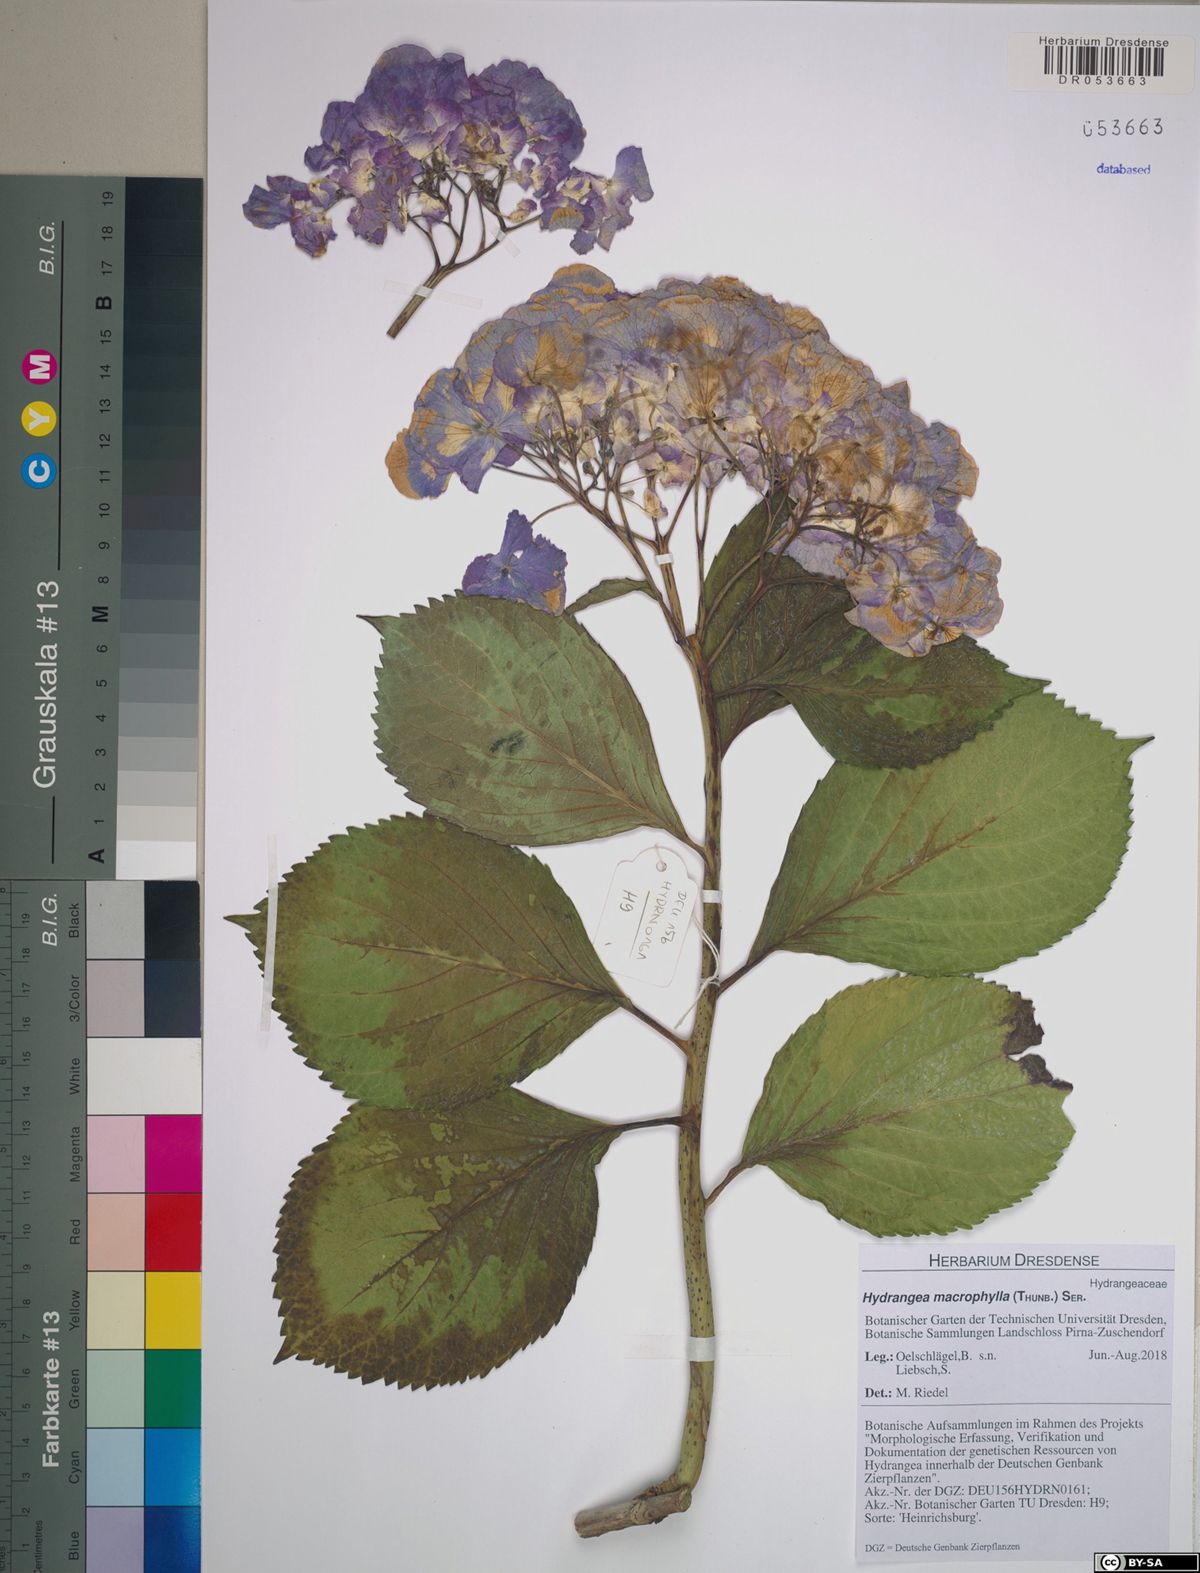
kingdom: Plantae
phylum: Tracheophyta
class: Magnoliopsida
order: Cornales
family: Hydrangeaceae
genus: Hydrangea
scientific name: Hydrangea macrophylla
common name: Hydrangea
